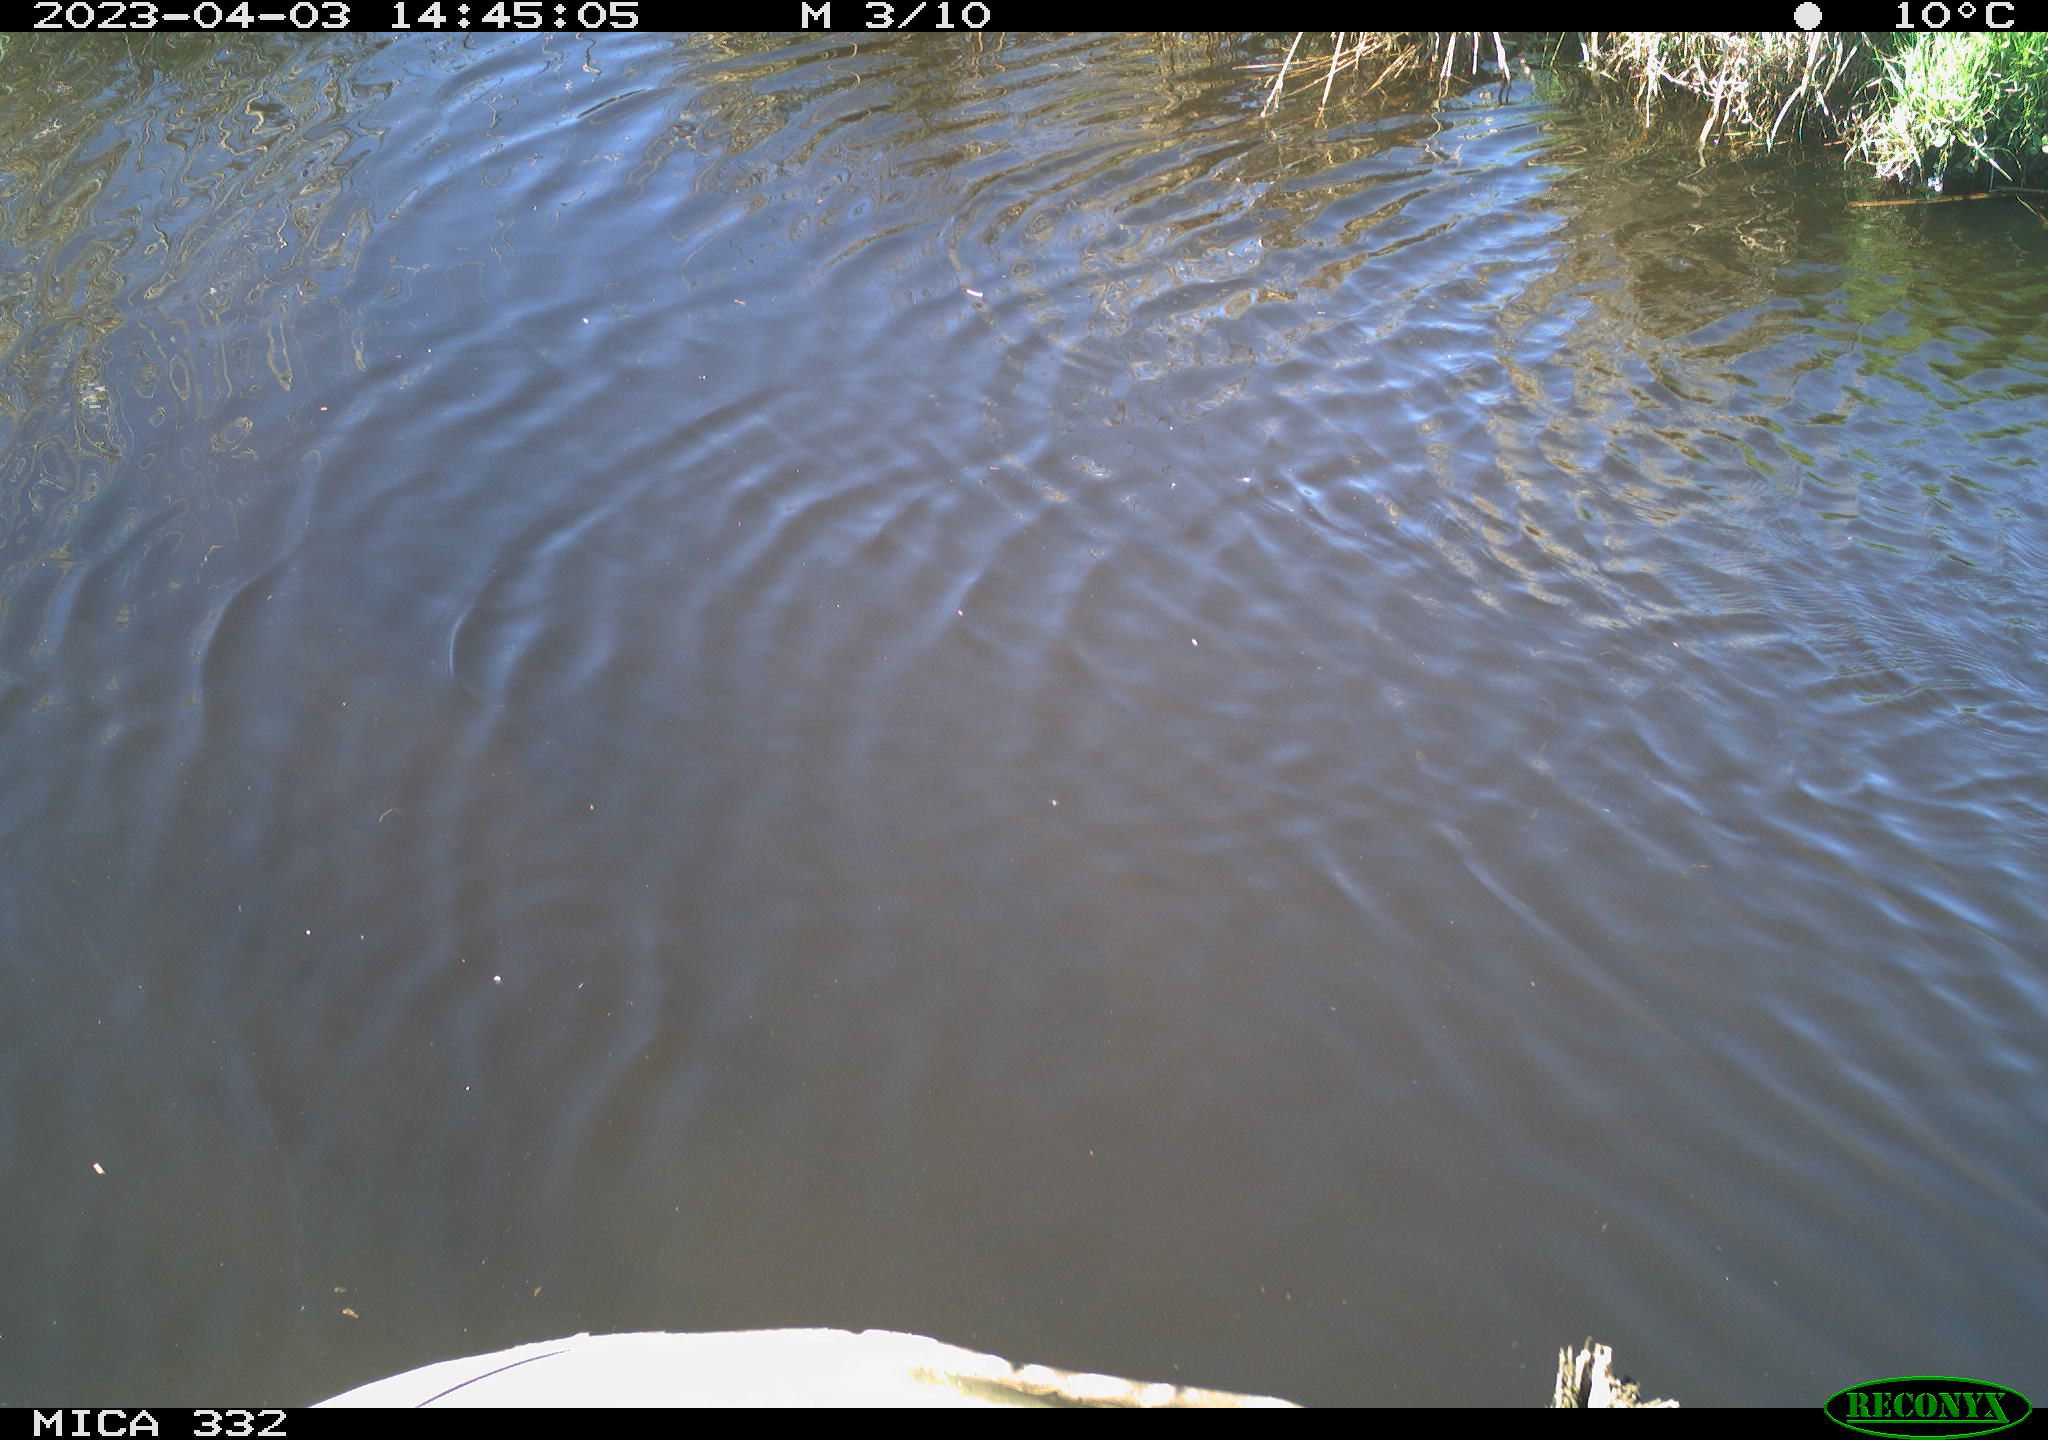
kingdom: Animalia
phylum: Chordata
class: Aves
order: Anseriformes
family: Anatidae
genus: Anas
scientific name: Anas platyrhynchos
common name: Mallard
